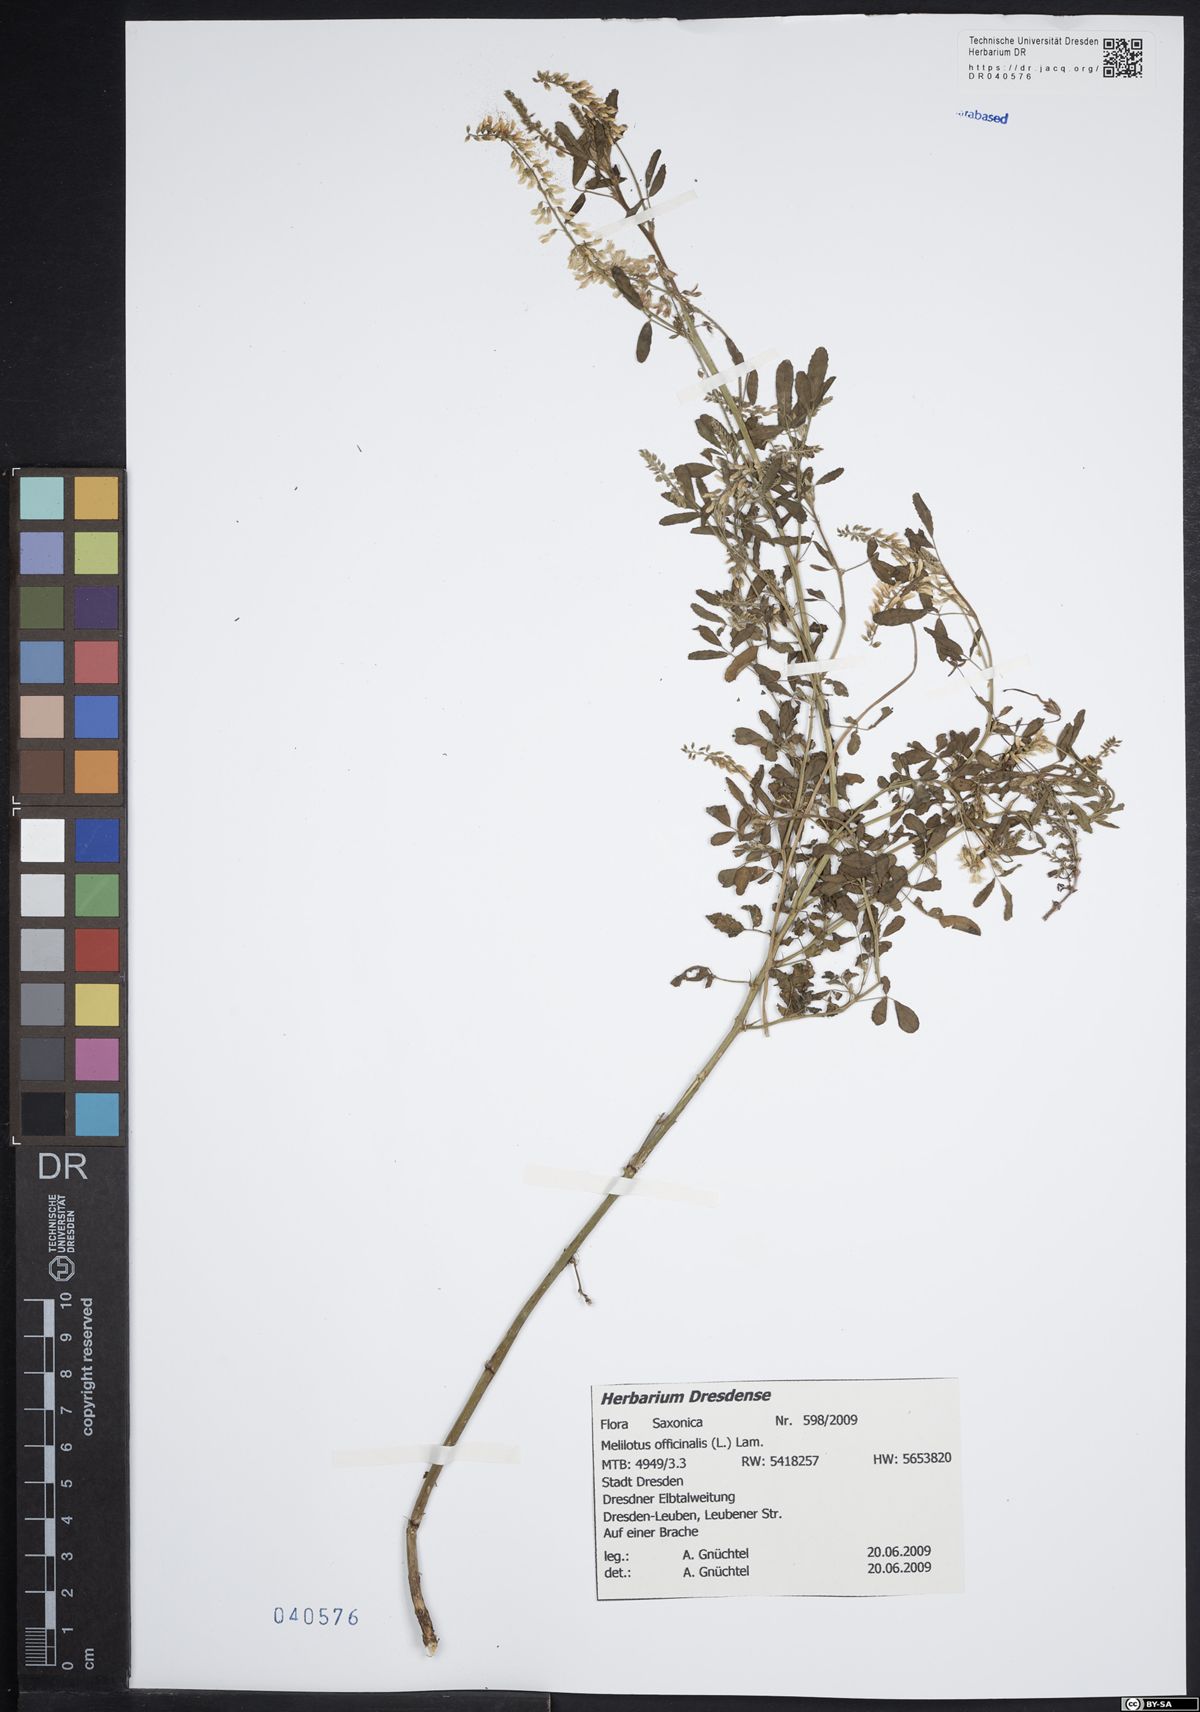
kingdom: Plantae
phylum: Tracheophyta
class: Magnoliopsida
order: Fabales
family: Fabaceae
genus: Melilotus
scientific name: Melilotus officinalis
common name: Sweetclover
